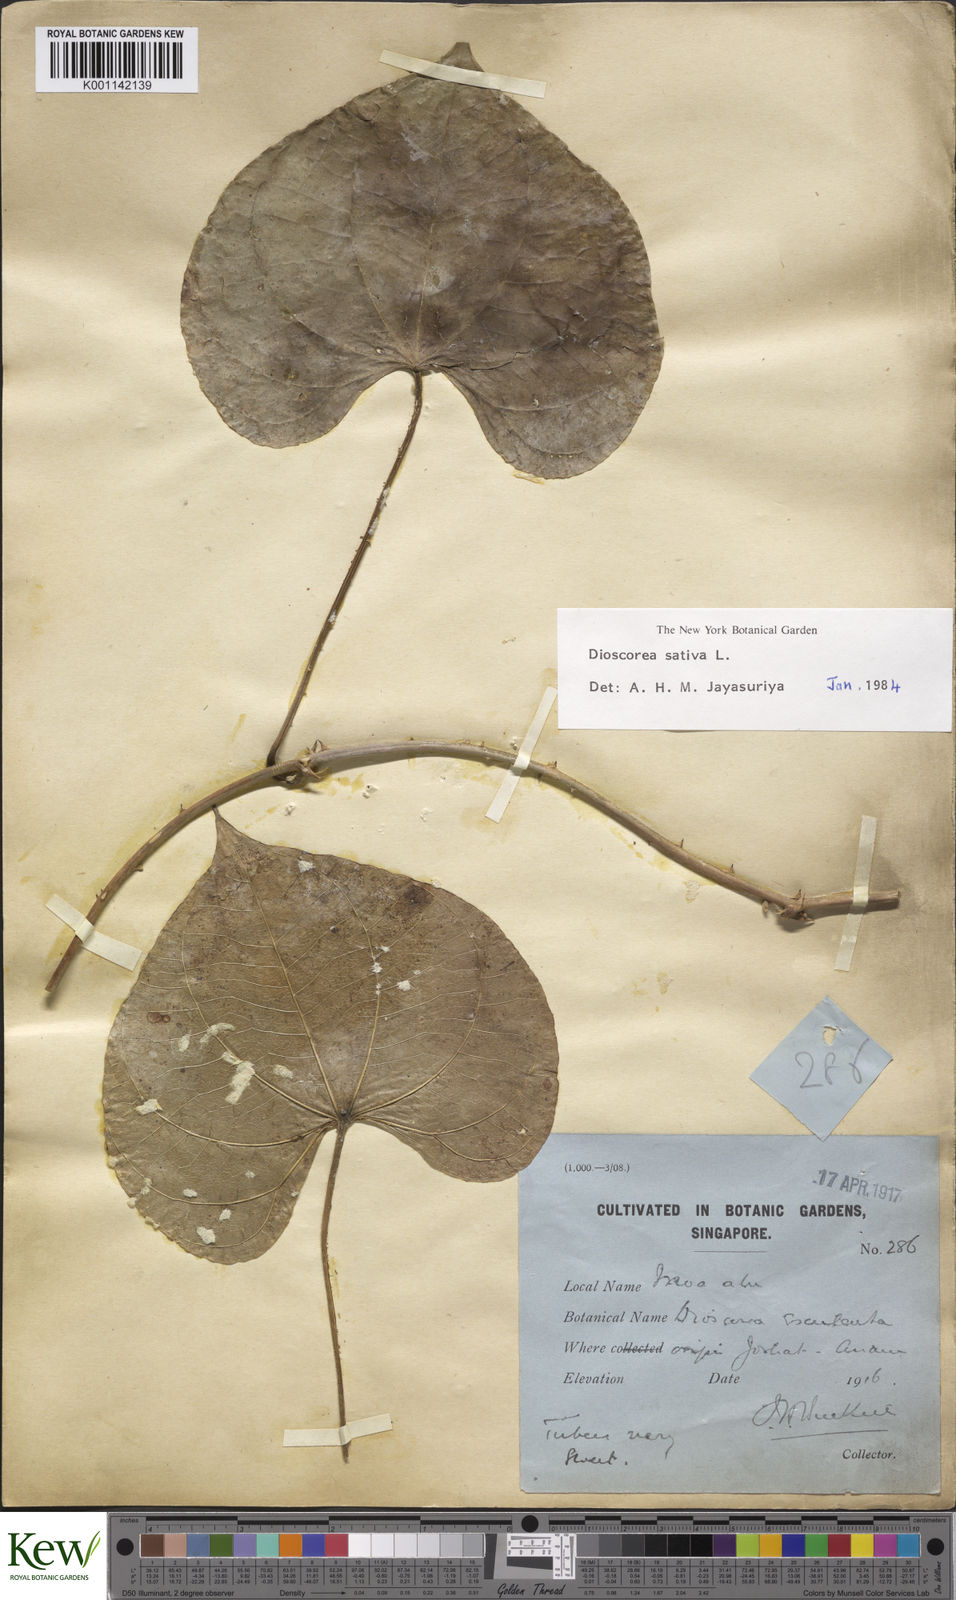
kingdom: Plantae
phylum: Tracheophyta
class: Liliopsida
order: Dioscoreales
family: Dioscoreaceae
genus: Dioscorea
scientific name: Dioscorea esculenta
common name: Chinese yam
